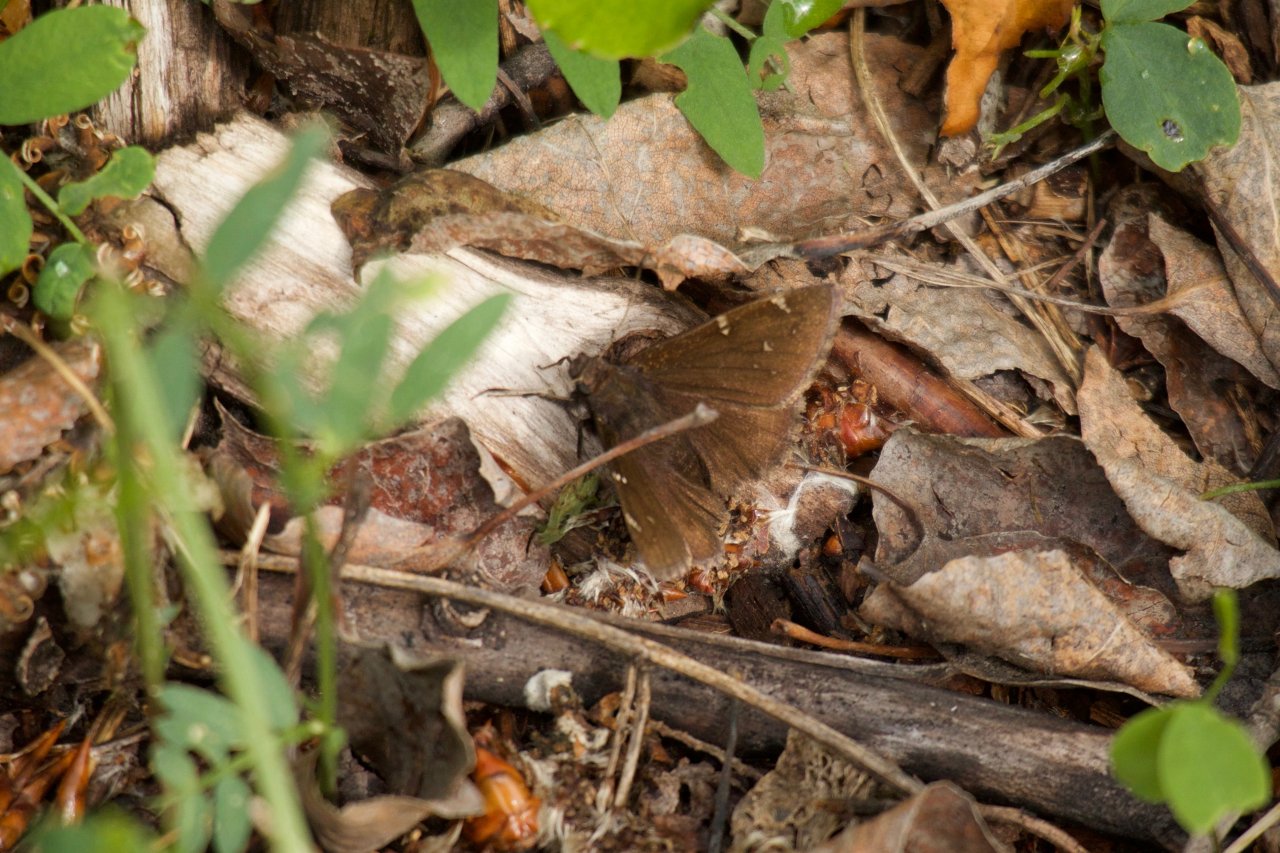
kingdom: Animalia
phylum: Arthropoda
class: Insecta
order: Lepidoptera
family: Hesperiidae
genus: Autochton
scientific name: Autochton
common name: Northern Cloudywing
